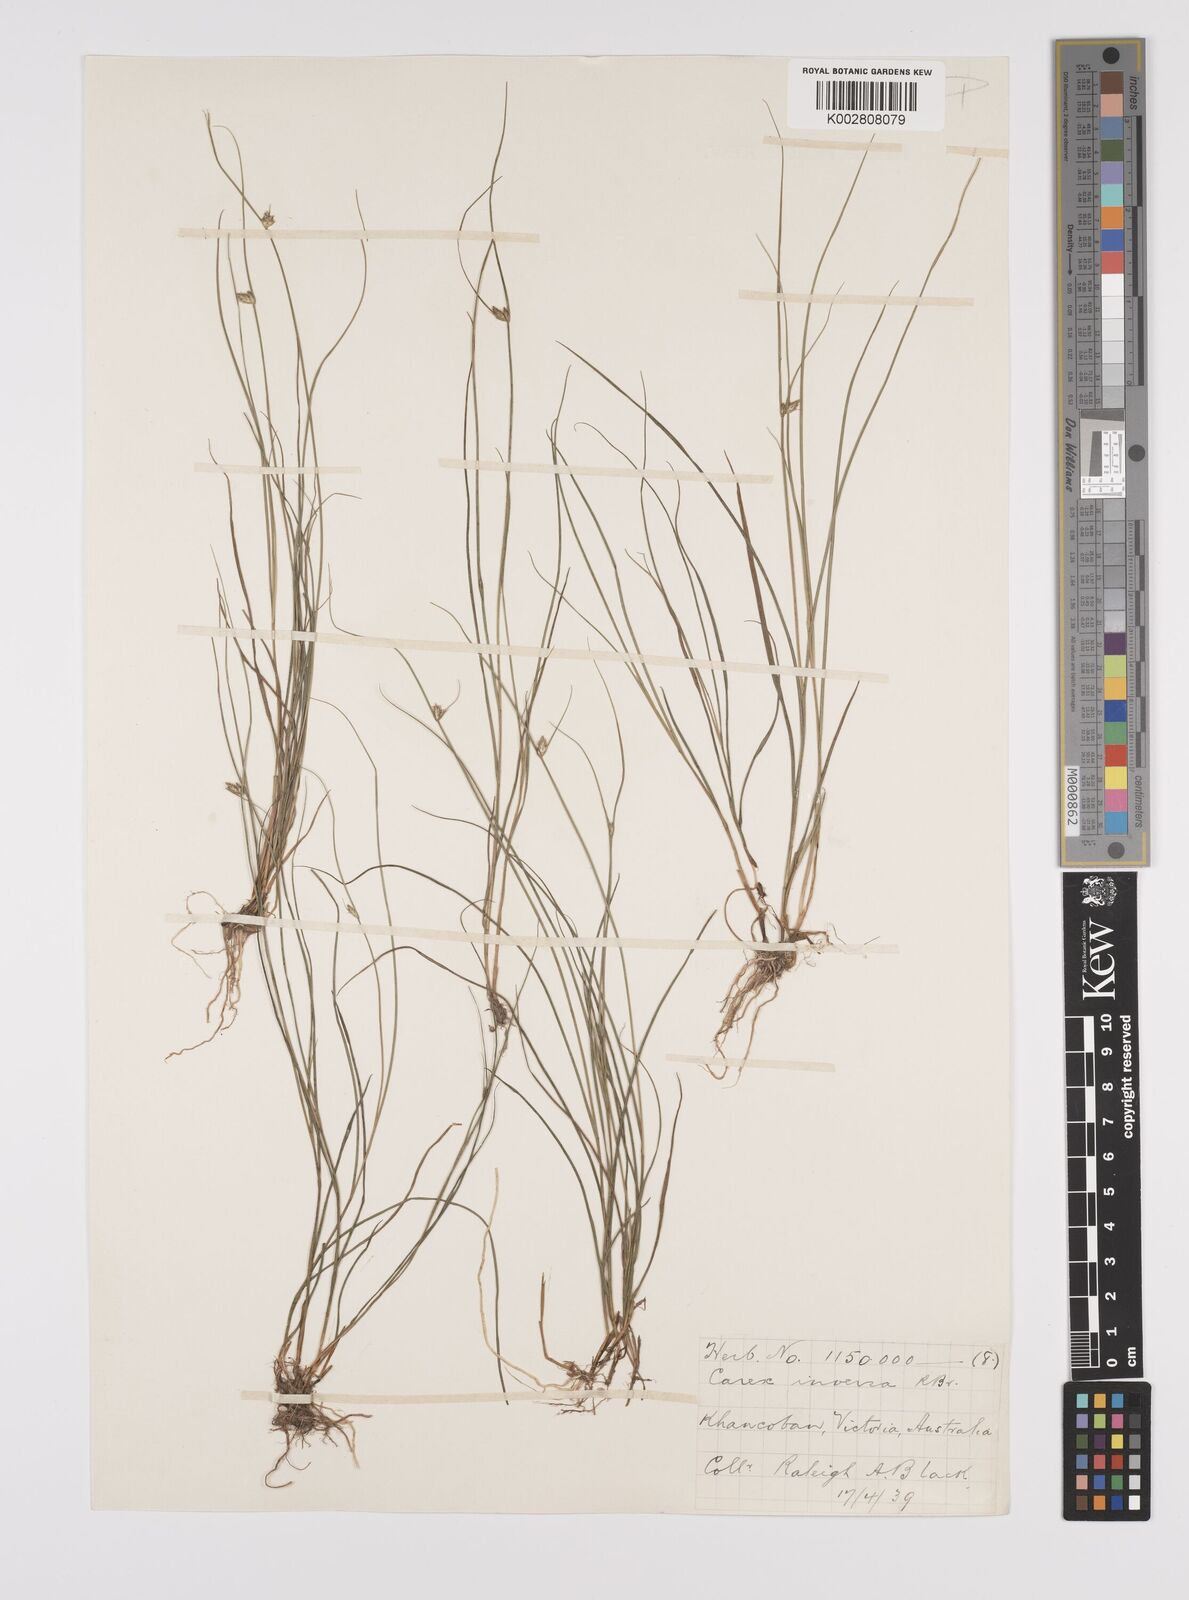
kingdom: Plantae
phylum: Tracheophyta
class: Liliopsida
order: Poales
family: Cyperaceae
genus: Carex
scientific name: Carex inversa
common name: Knob sedge
